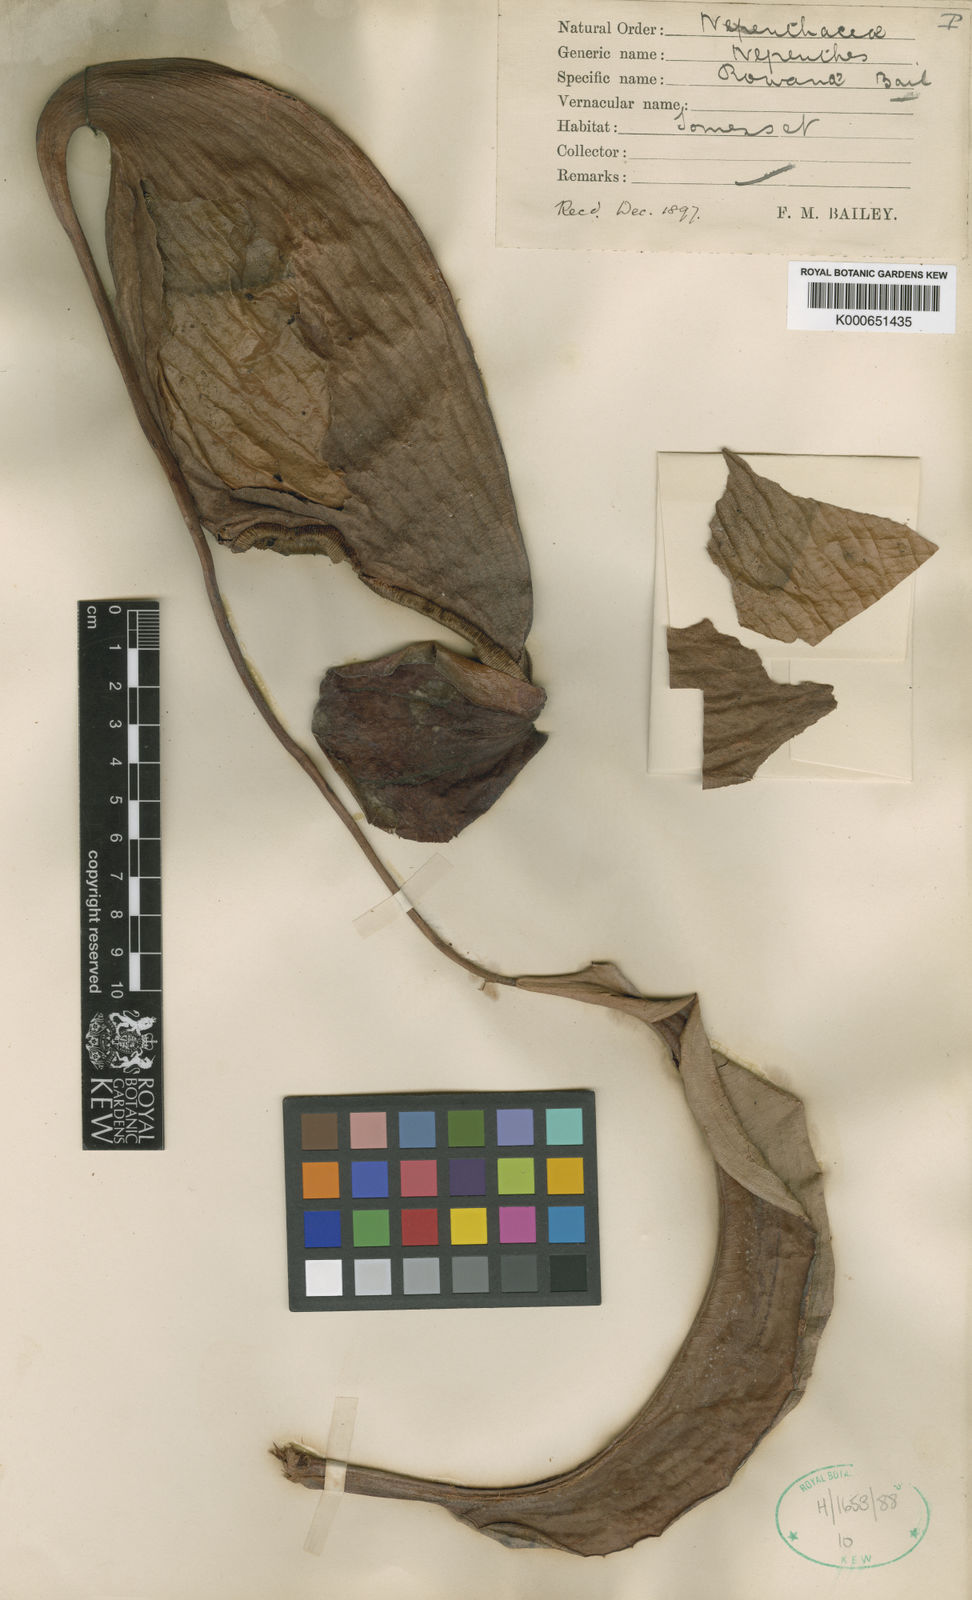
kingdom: Plantae
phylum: Tracheophyta
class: Magnoliopsida
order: Caryophyllales
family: Nepenthaceae
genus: Nepenthes
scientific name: Nepenthes mirabilis
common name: Tropical pitcherplant
